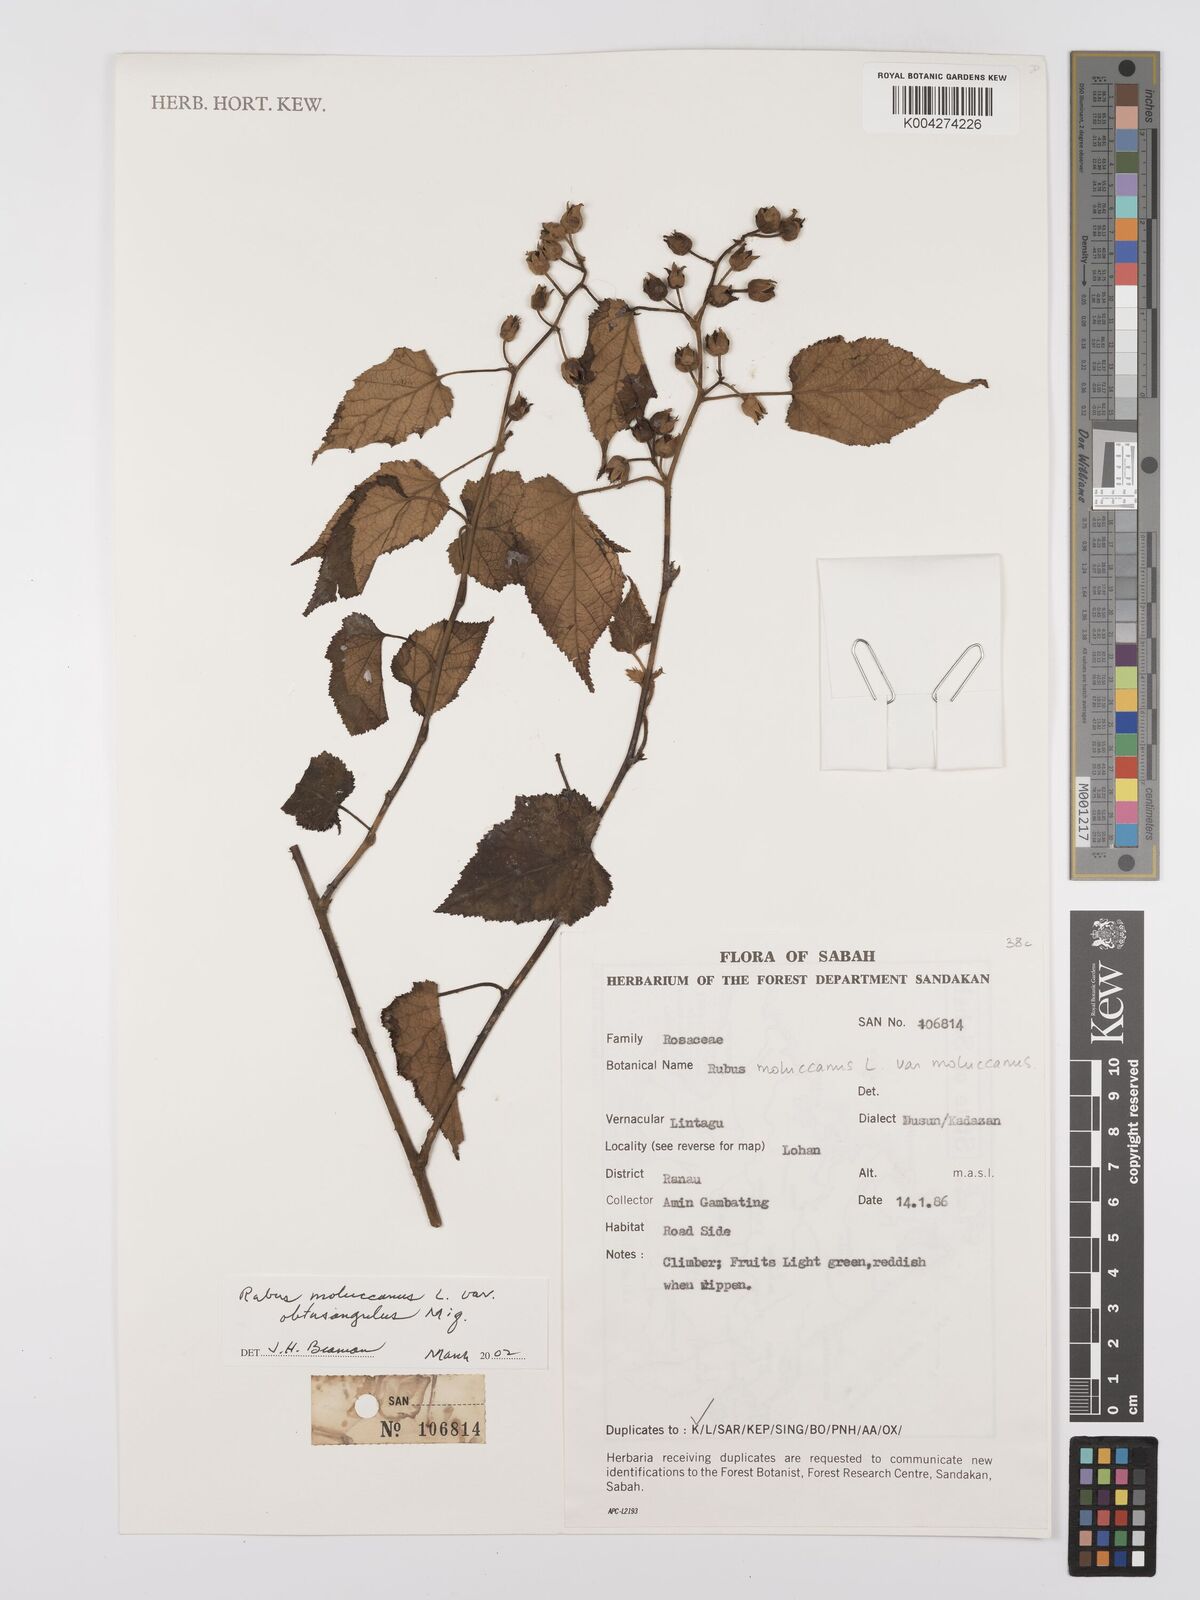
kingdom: Plantae
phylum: Tracheophyta
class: Magnoliopsida
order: Rosales
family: Rosaceae
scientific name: Rosaceae
